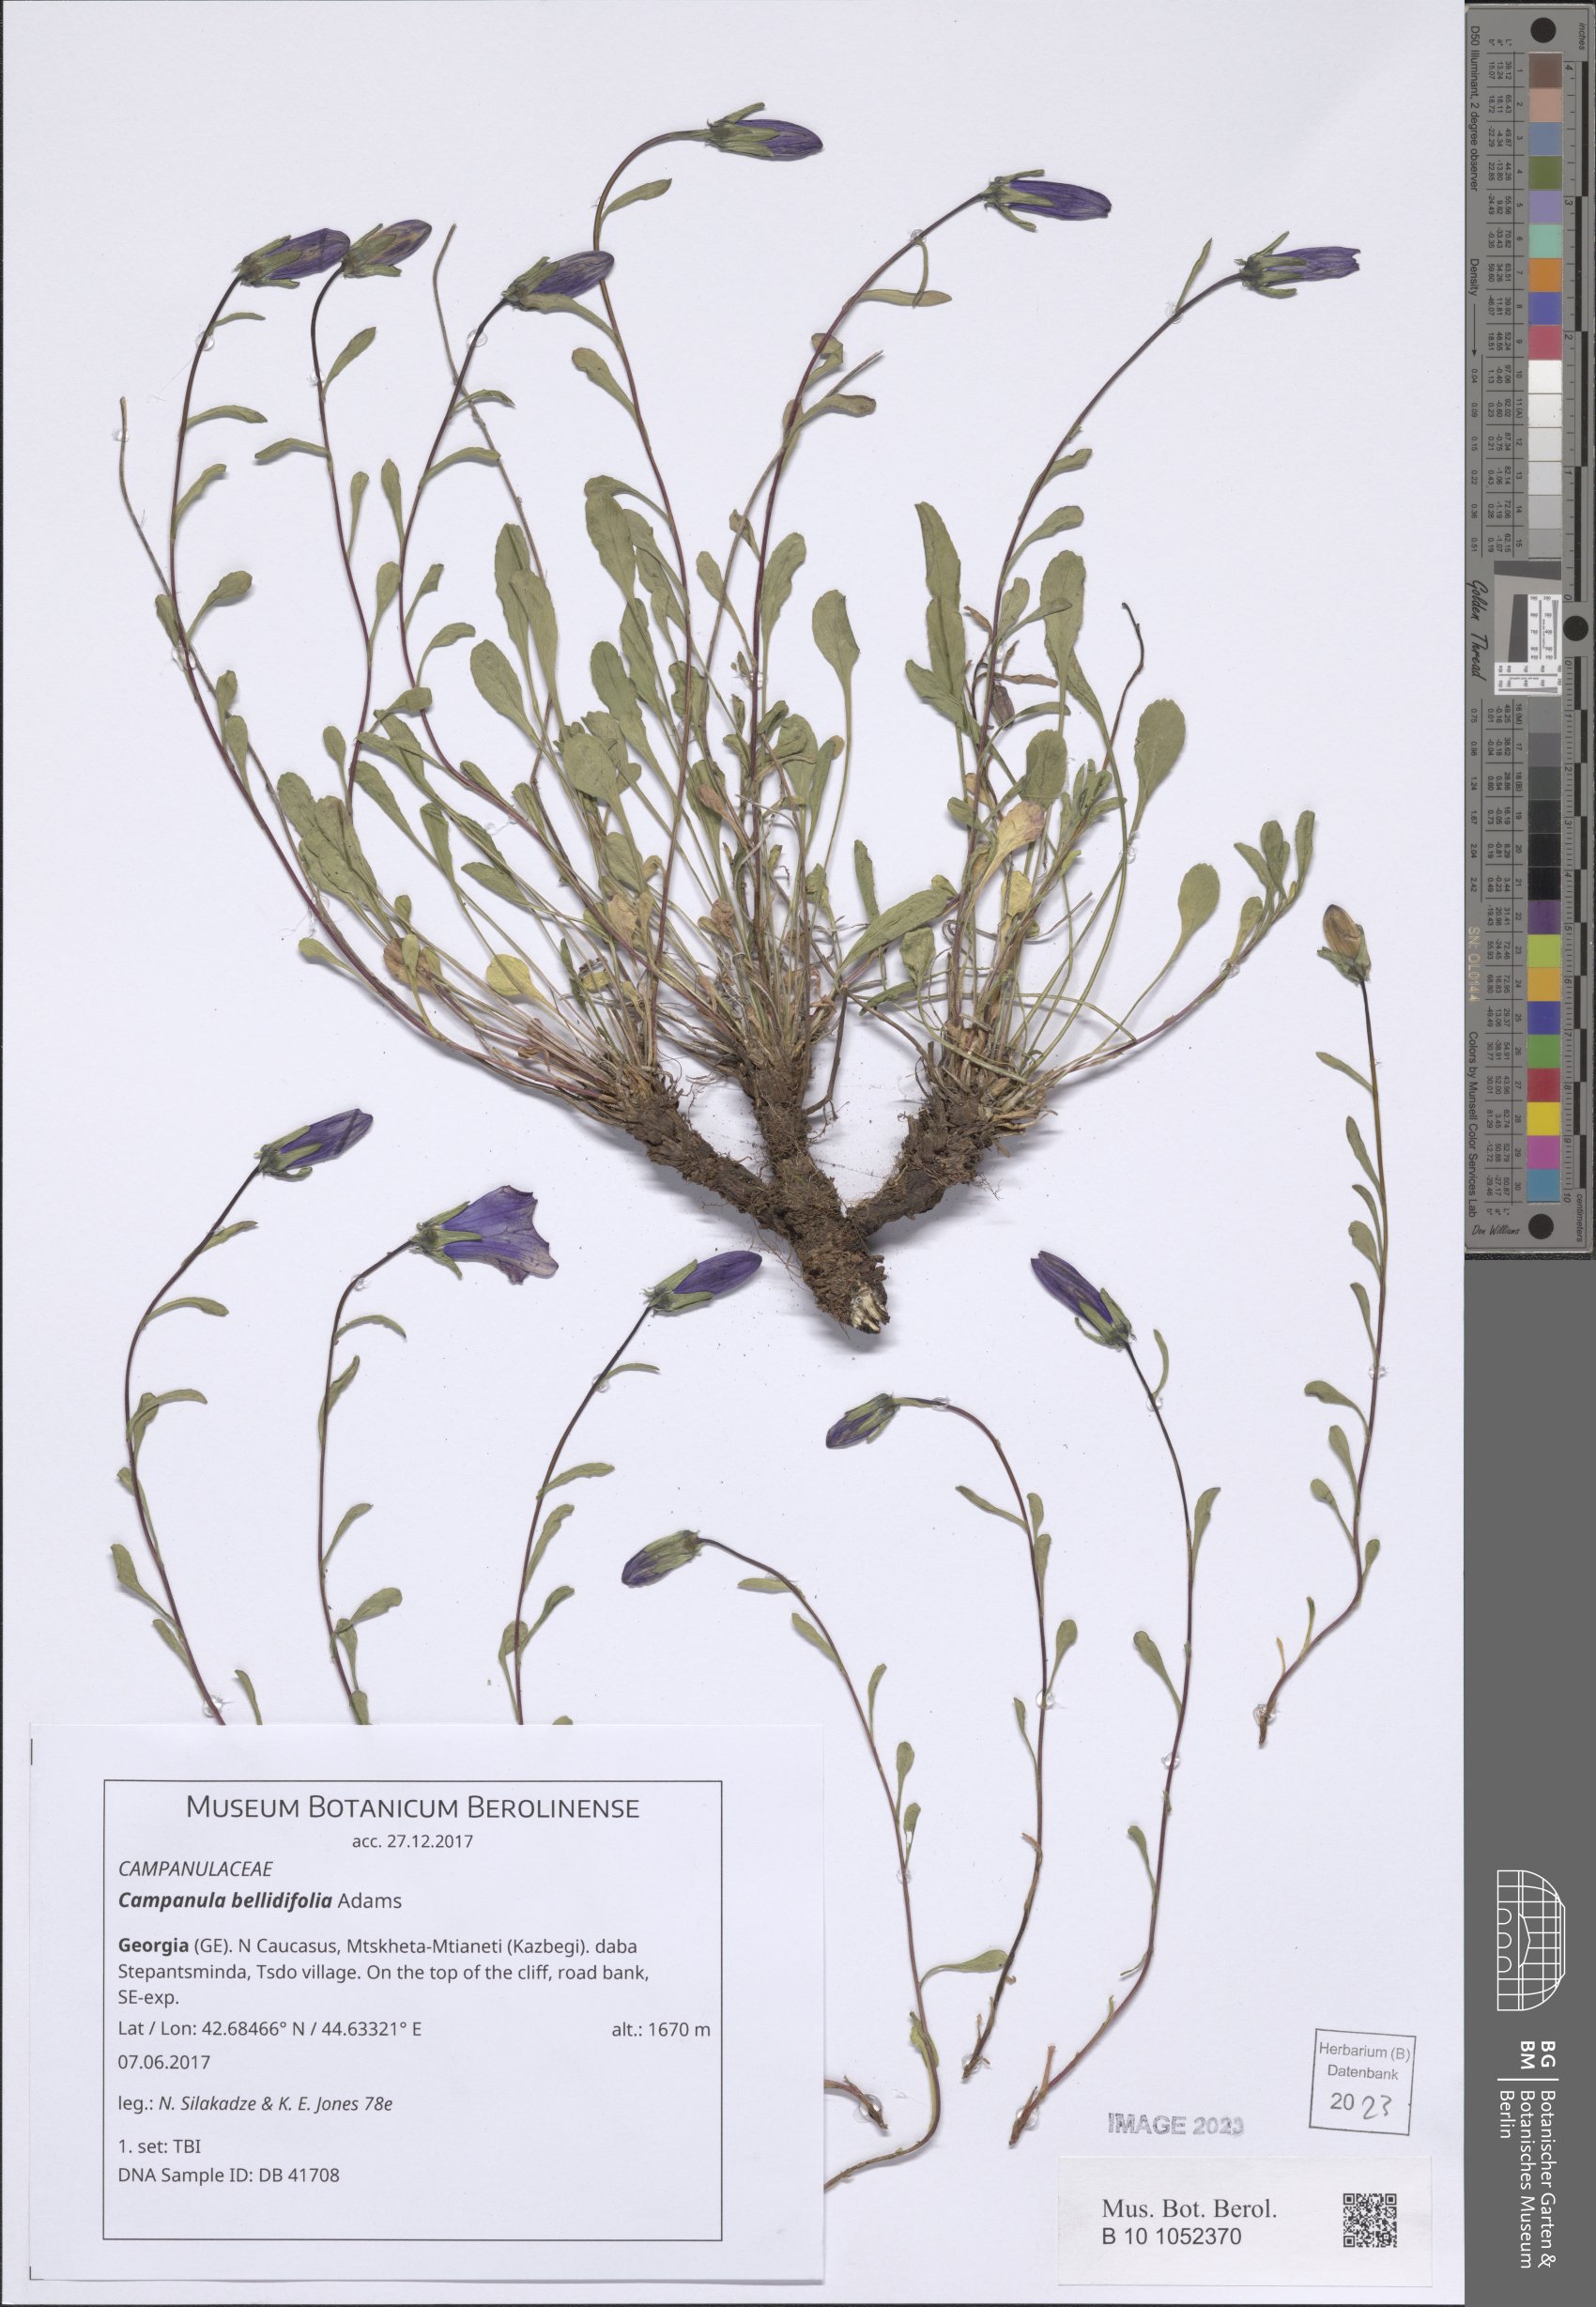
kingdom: Plantae
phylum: Tracheophyta
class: Magnoliopsida
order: Asterales
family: Campanulaceae
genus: Campanula
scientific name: Campanula bellidifolia
